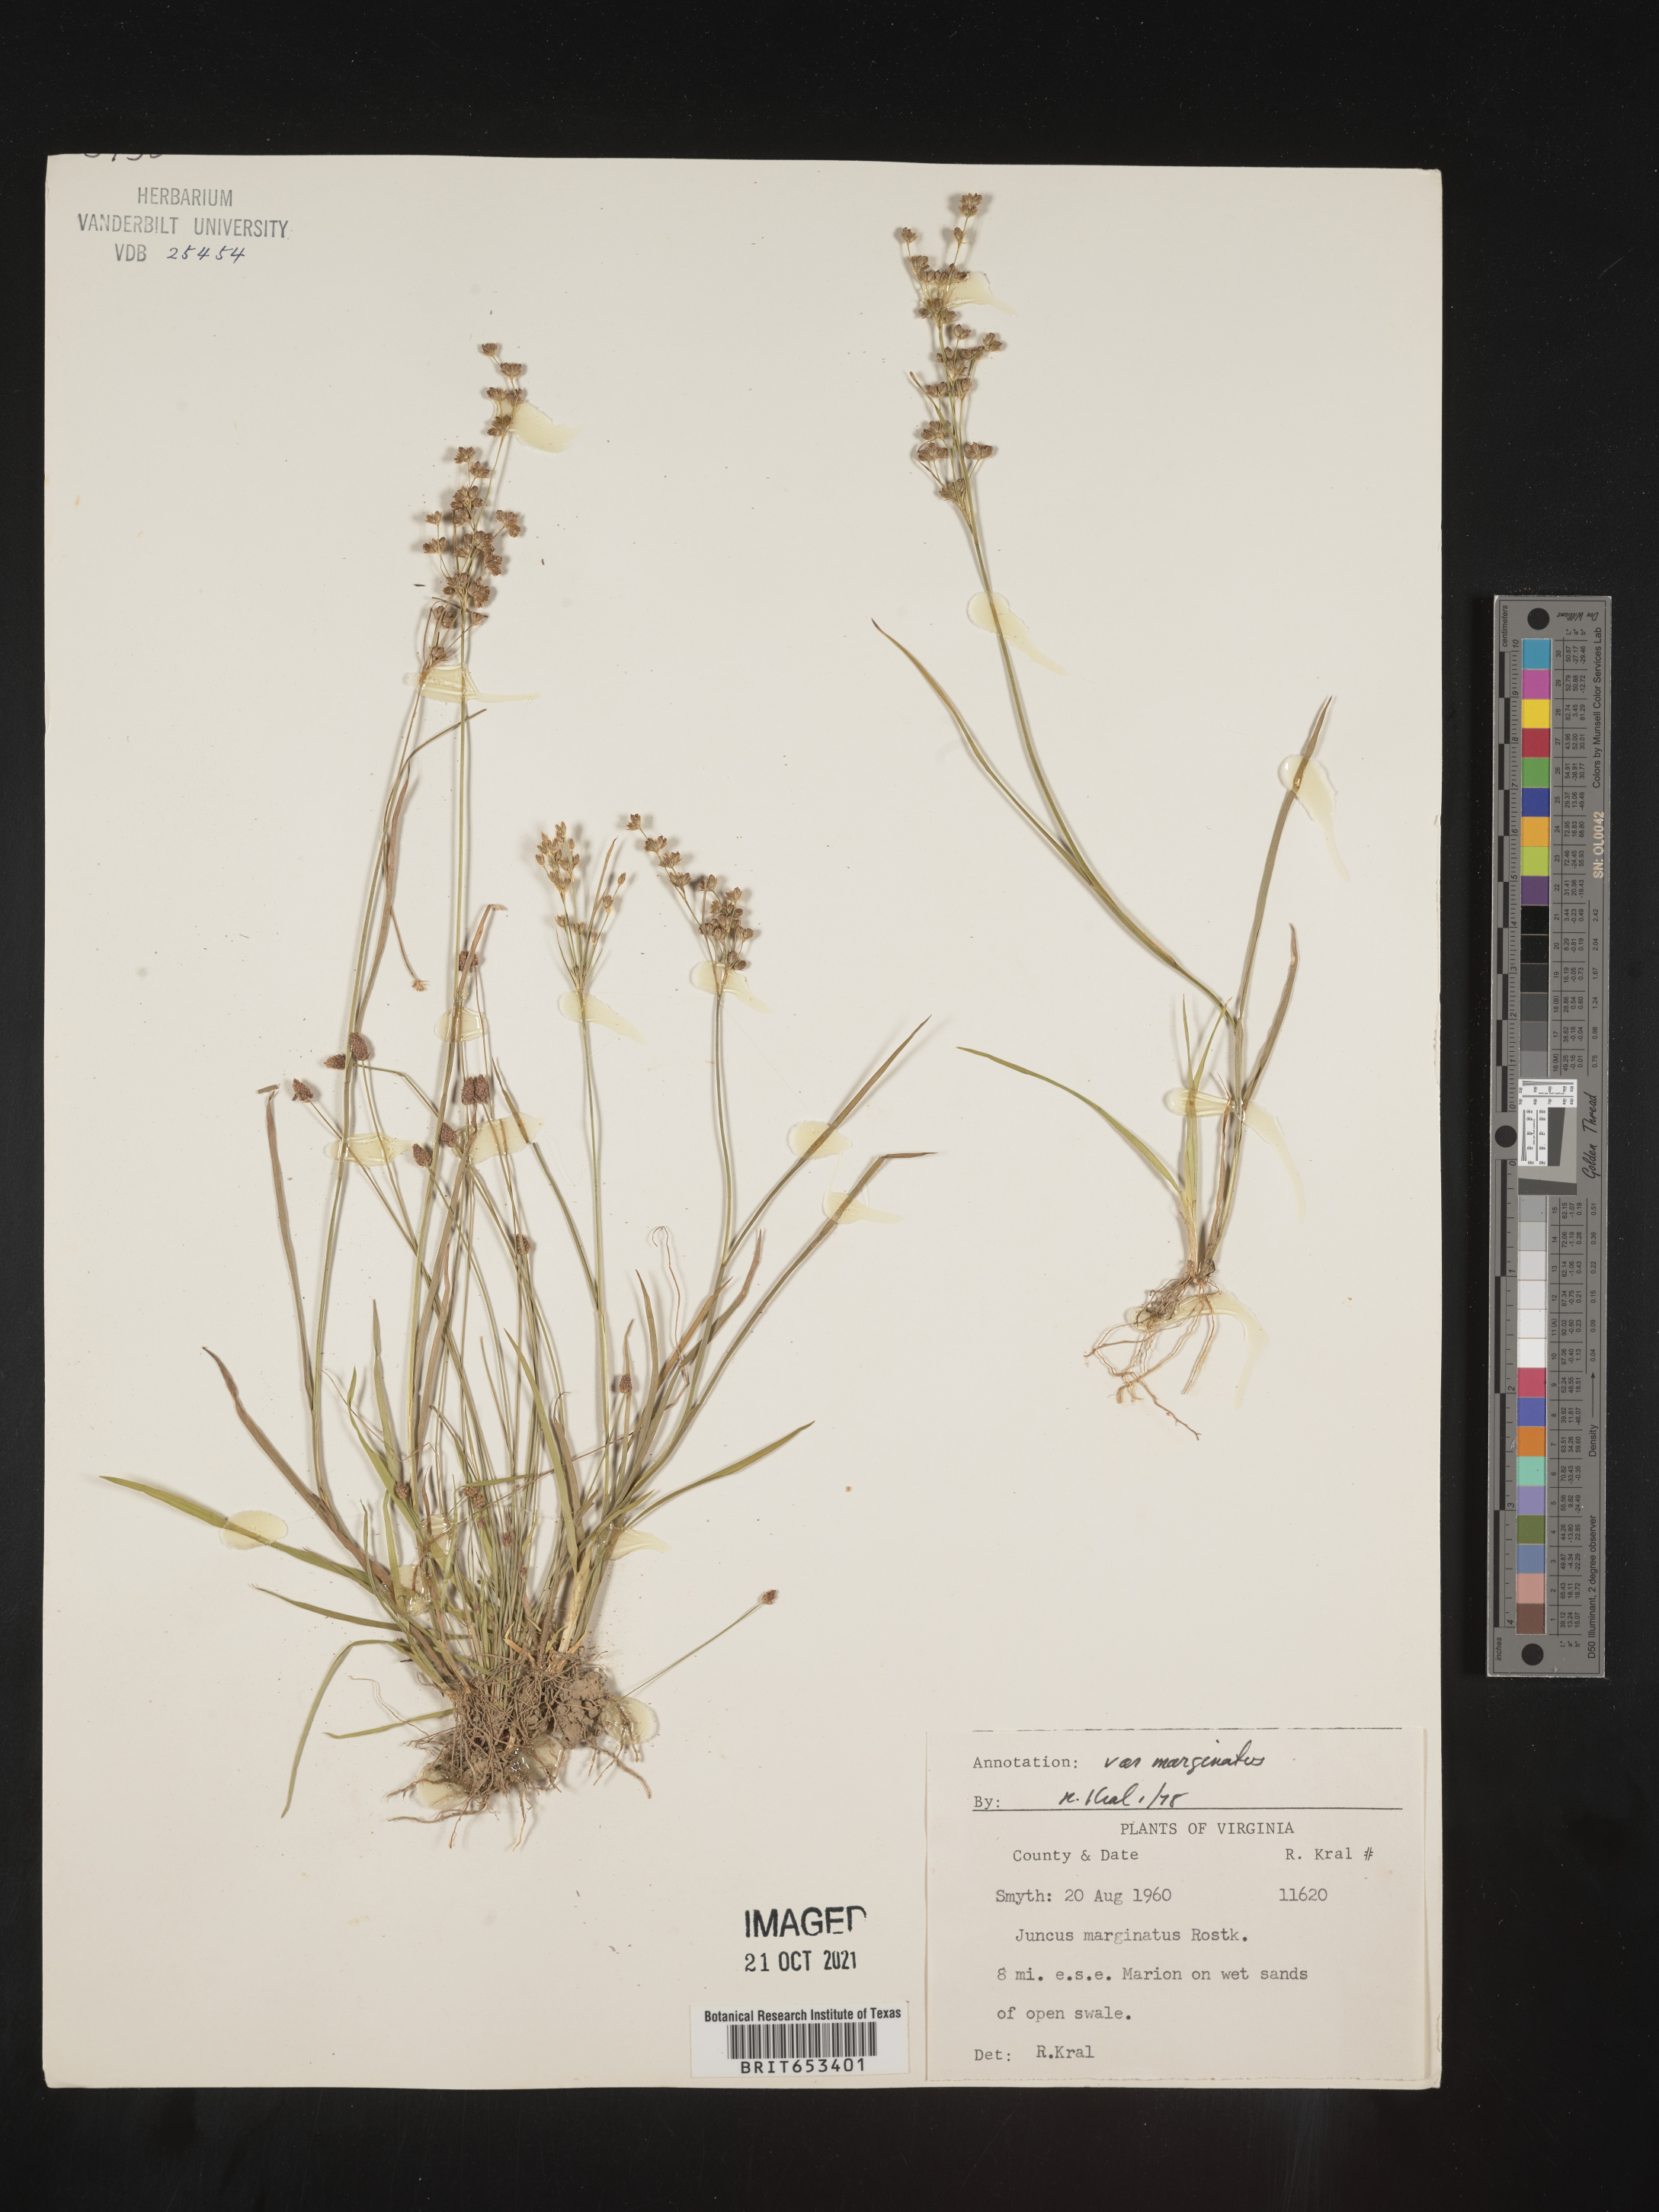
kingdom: Plantae
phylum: Tracheophyta
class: Liliopsida
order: Poales
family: Juncaceae
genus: Juncus
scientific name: Juncus marginatus
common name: Grass-leaf rush
